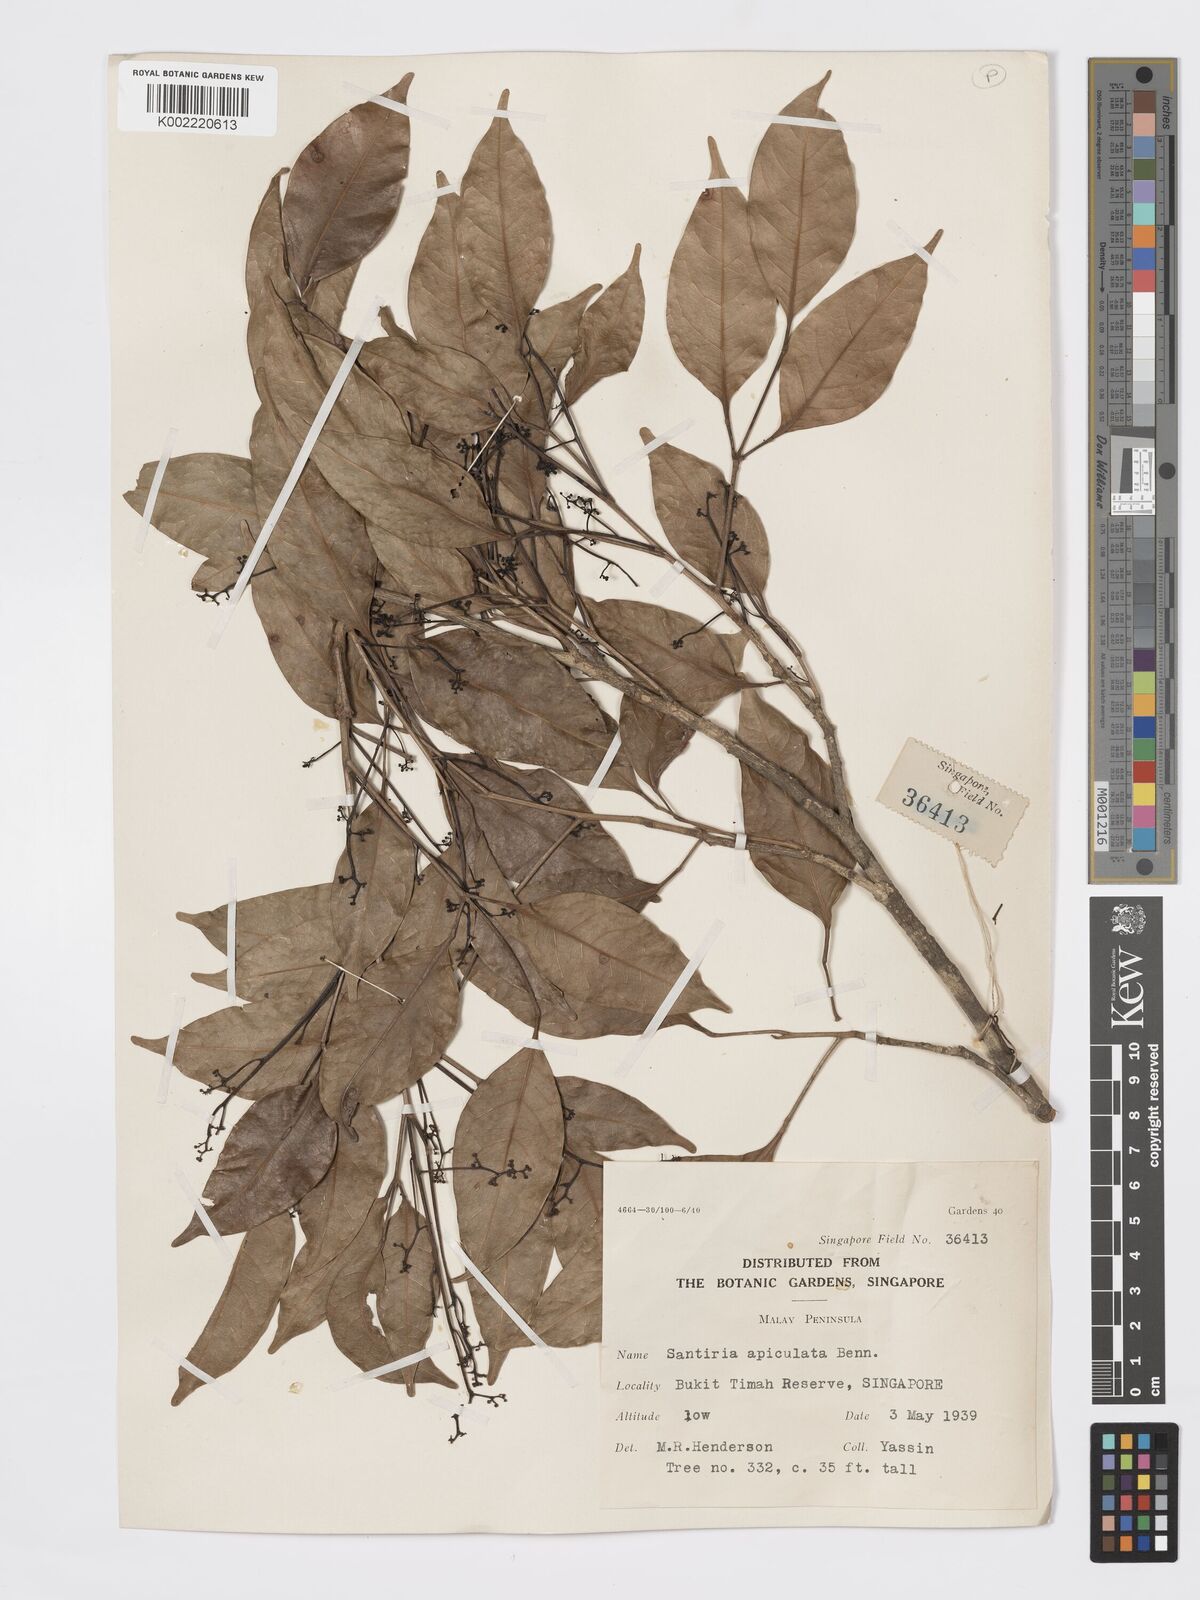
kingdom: Plantae
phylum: Tracheophyta
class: Magnoliopsida
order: Sapindales
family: Burseraceae
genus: Santiria
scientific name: Santiria apiculata
